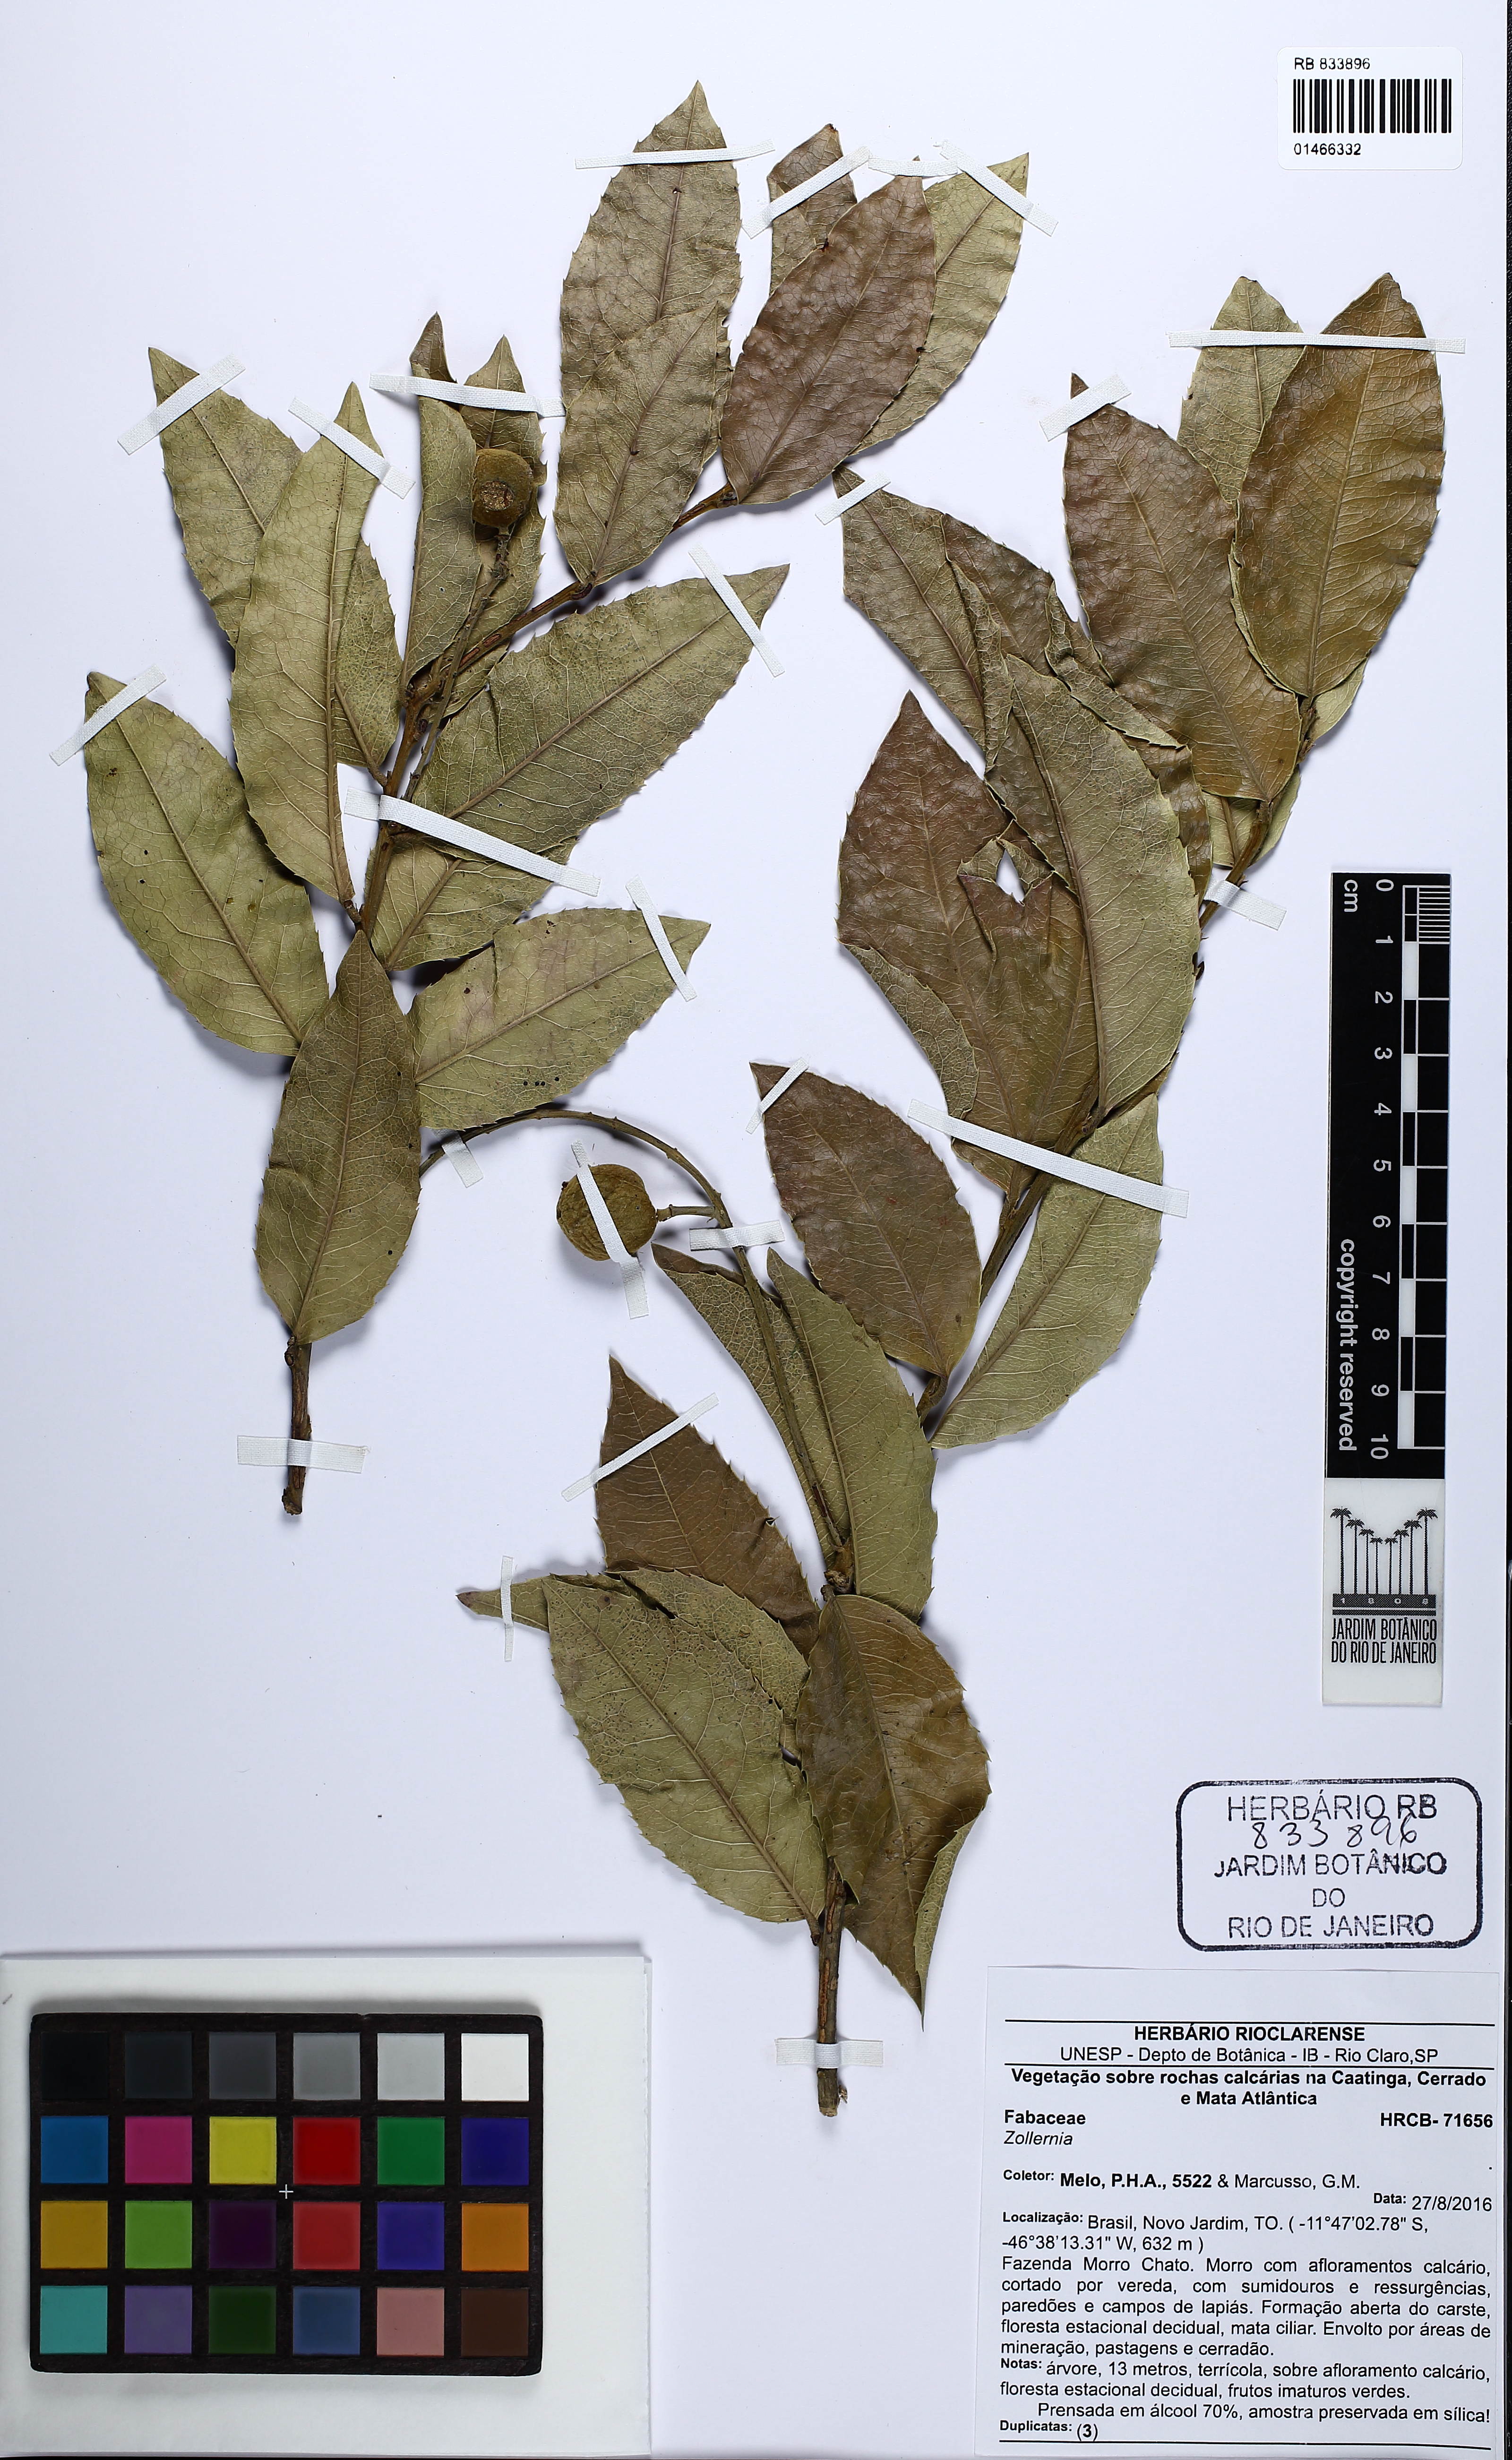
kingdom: Plantae
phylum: Tracheophyta
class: Magnoliopsida
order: Fabales
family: Fabaceae
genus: Zollernia
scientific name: Zollernia
